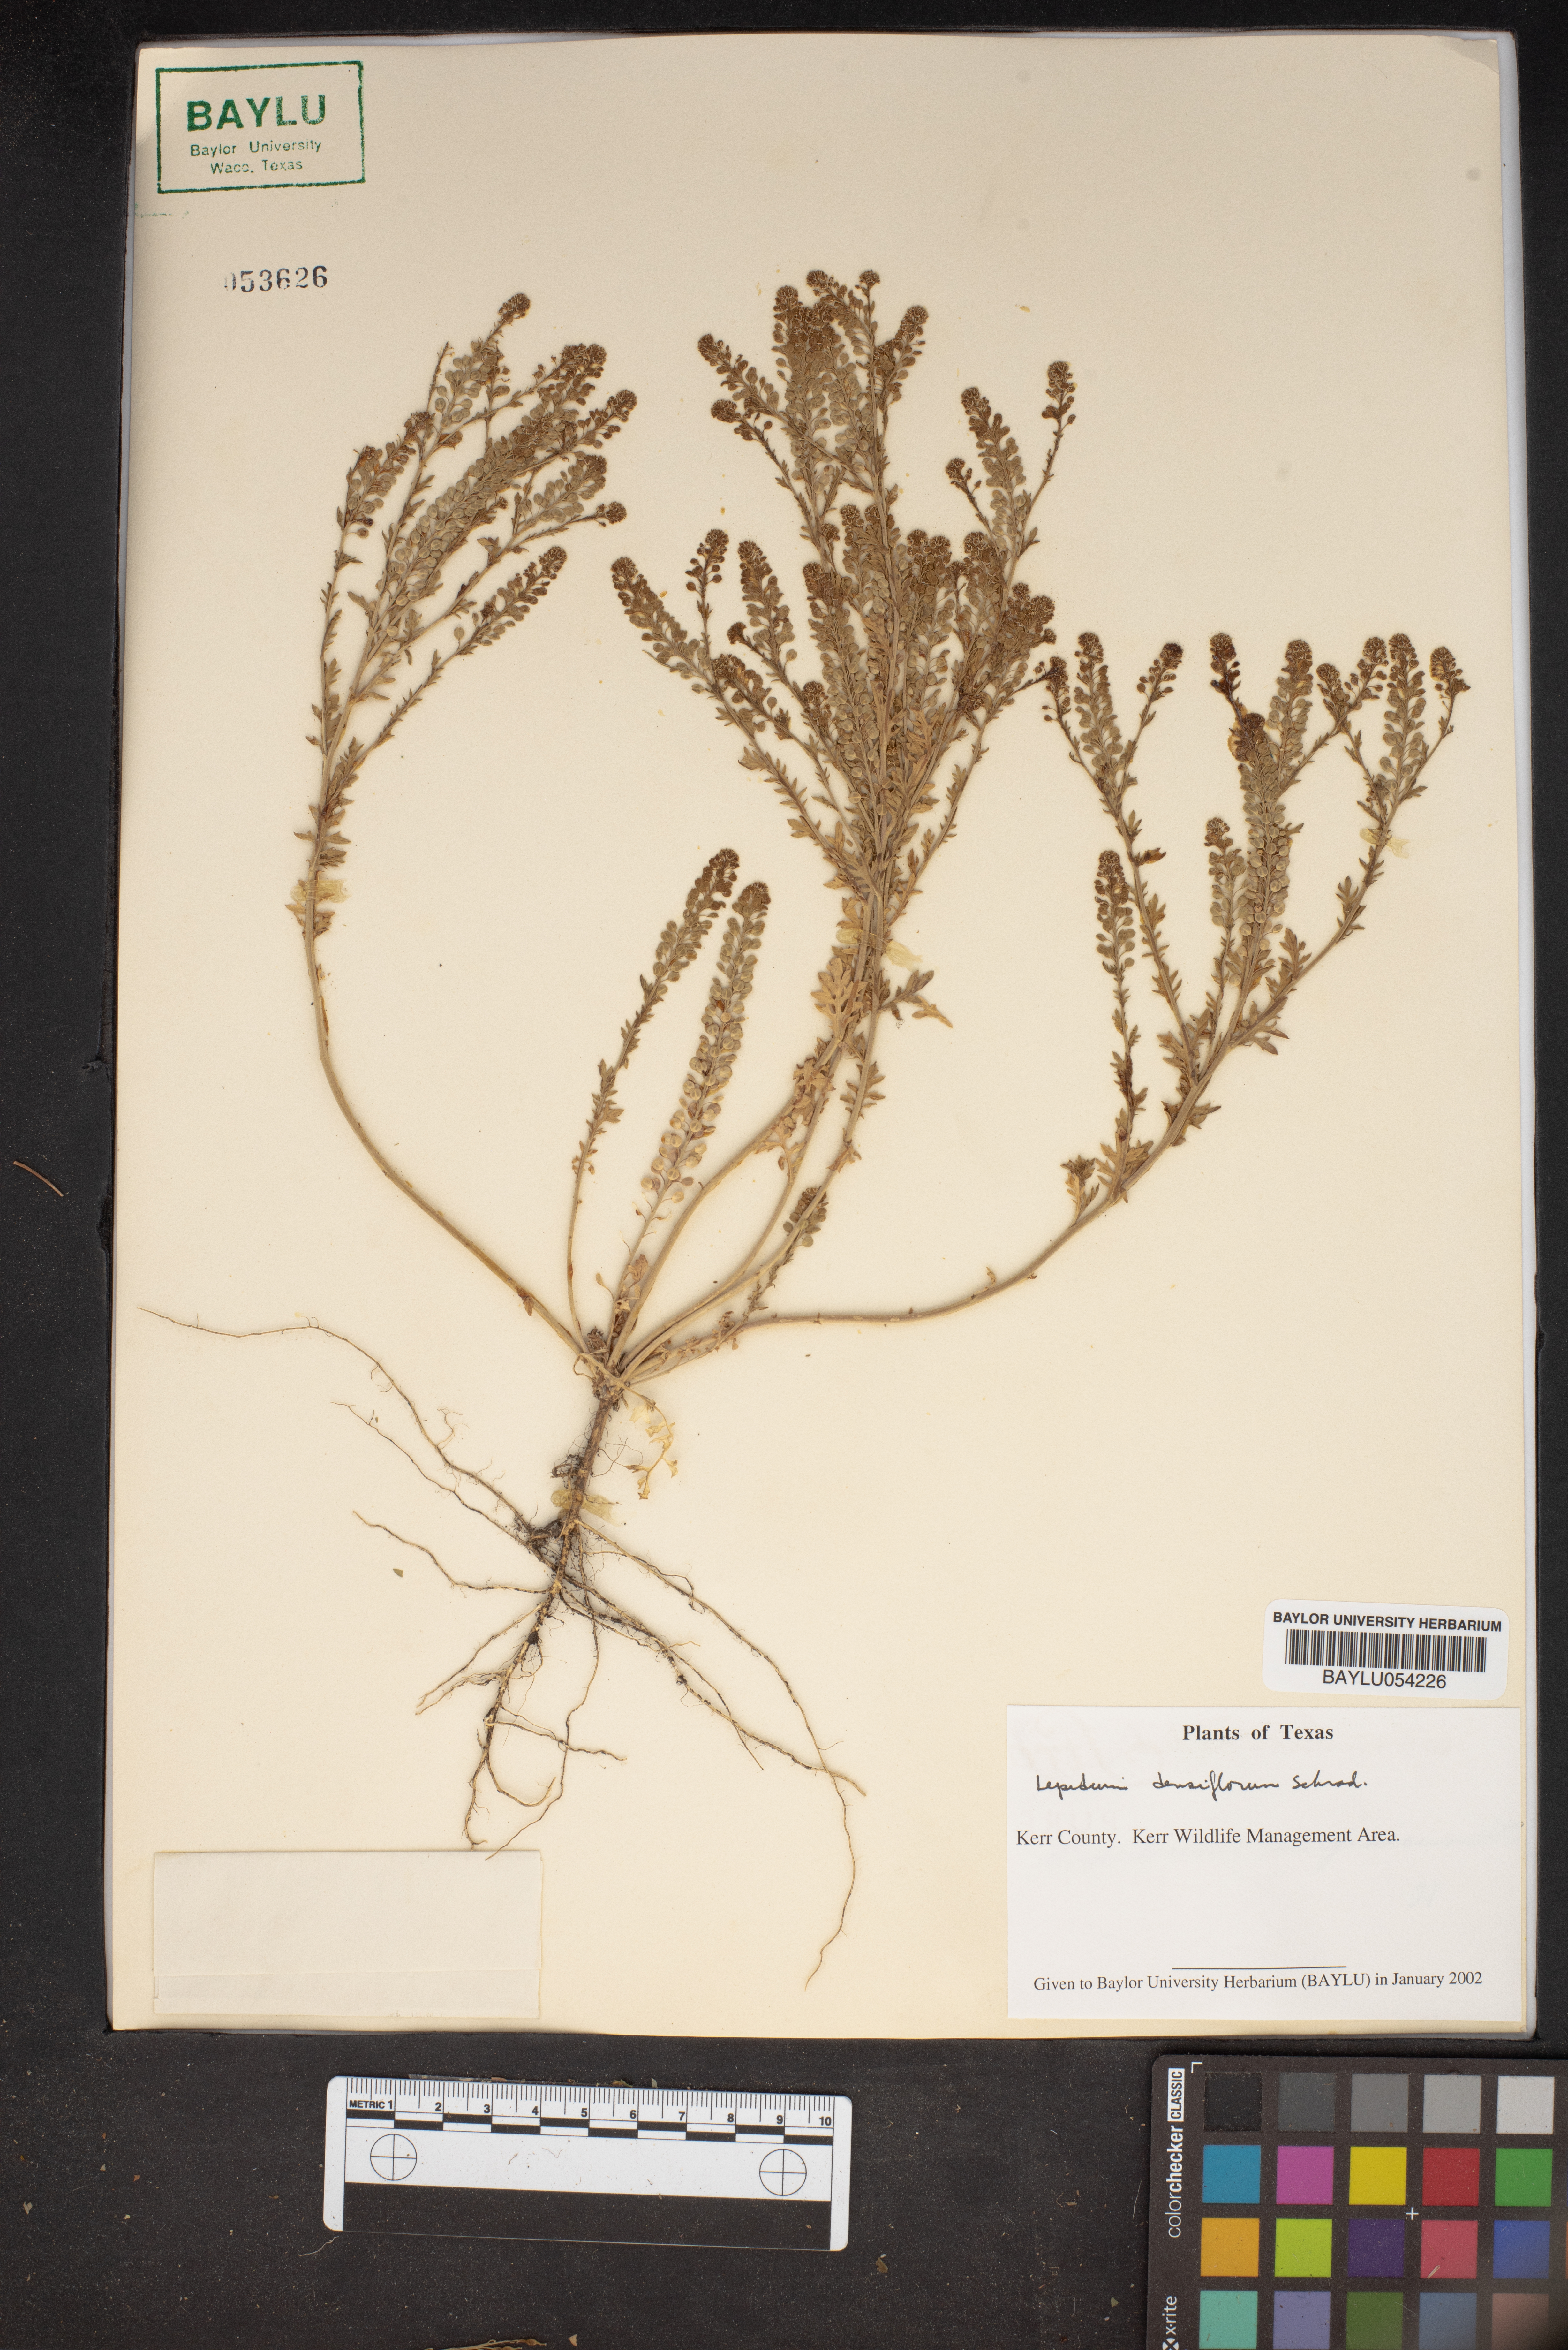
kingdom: Plantae
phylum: Tracheophyta
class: Magnoliopsida
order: Brassicales
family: Brassicaceae
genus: Lepidium
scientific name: Lepidium densiflorum
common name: Miner's pepperwort
